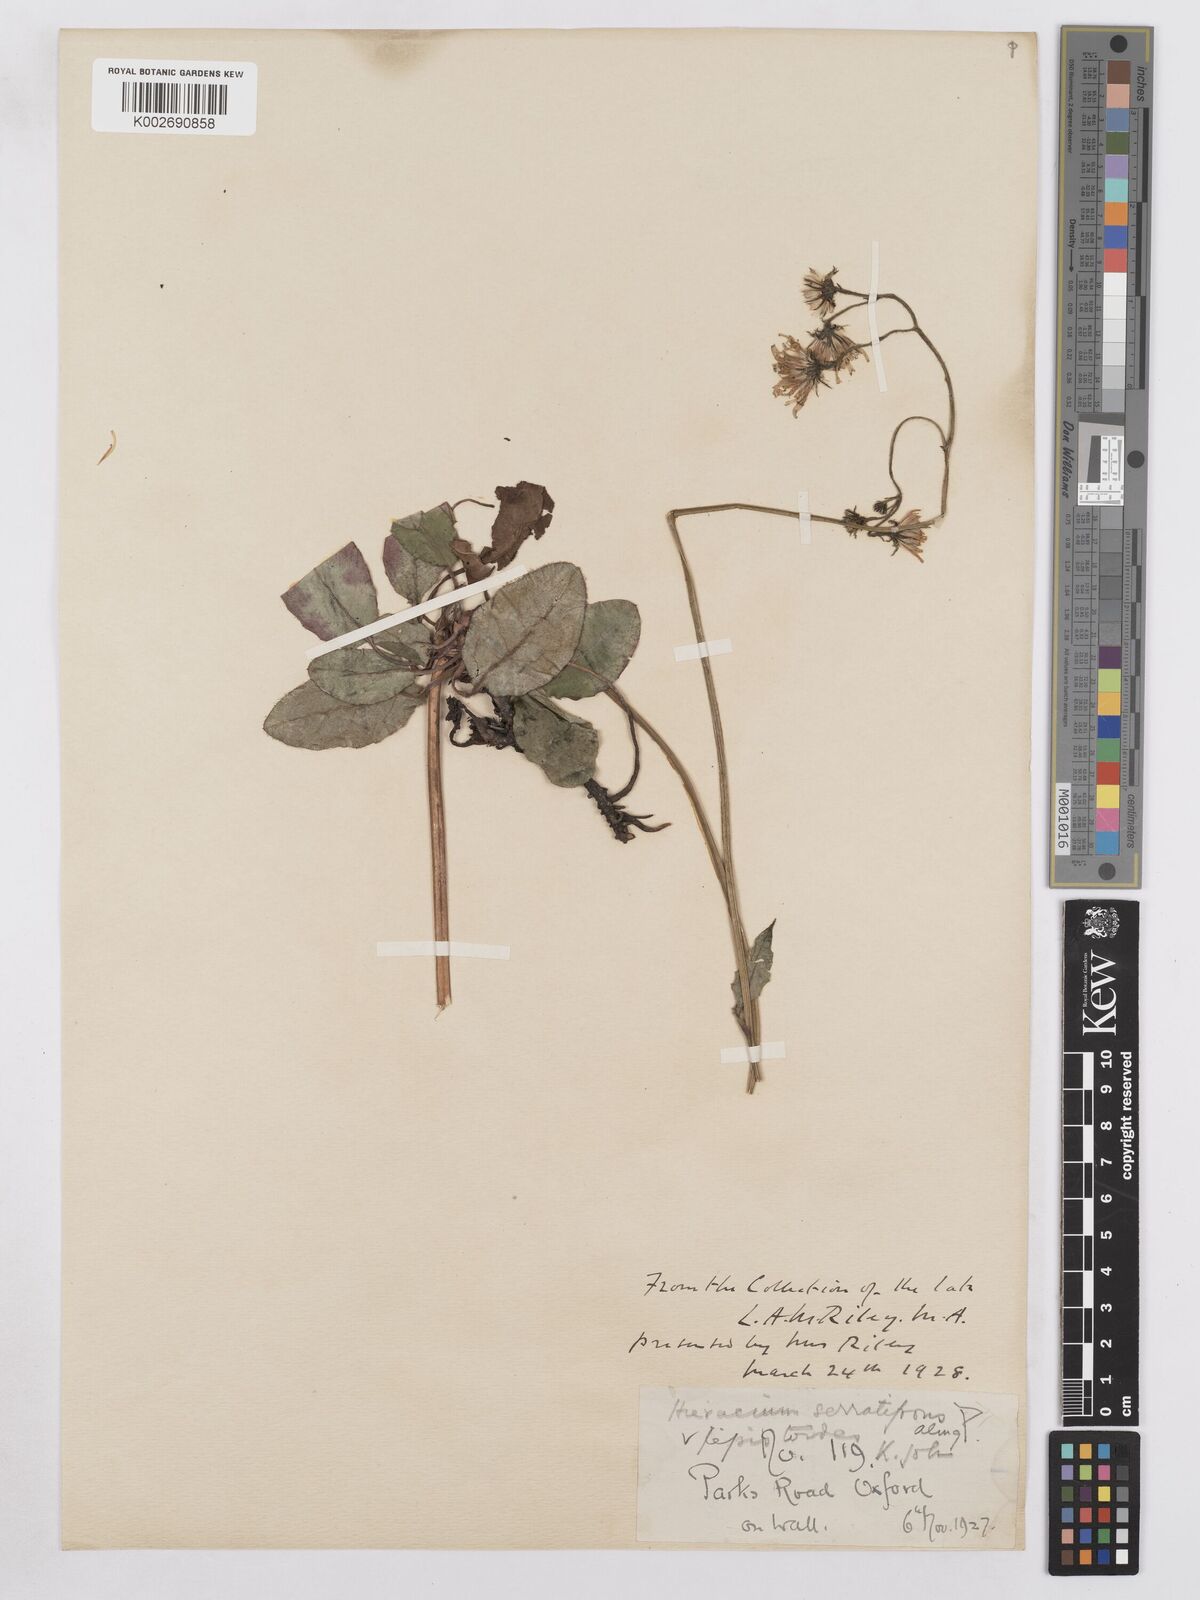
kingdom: Plantae
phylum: Tracheophyta
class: Magnoliopsida
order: Asterales
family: Asteraceae
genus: Hieracium
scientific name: Hieracium murorum
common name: Wall hawkweed
